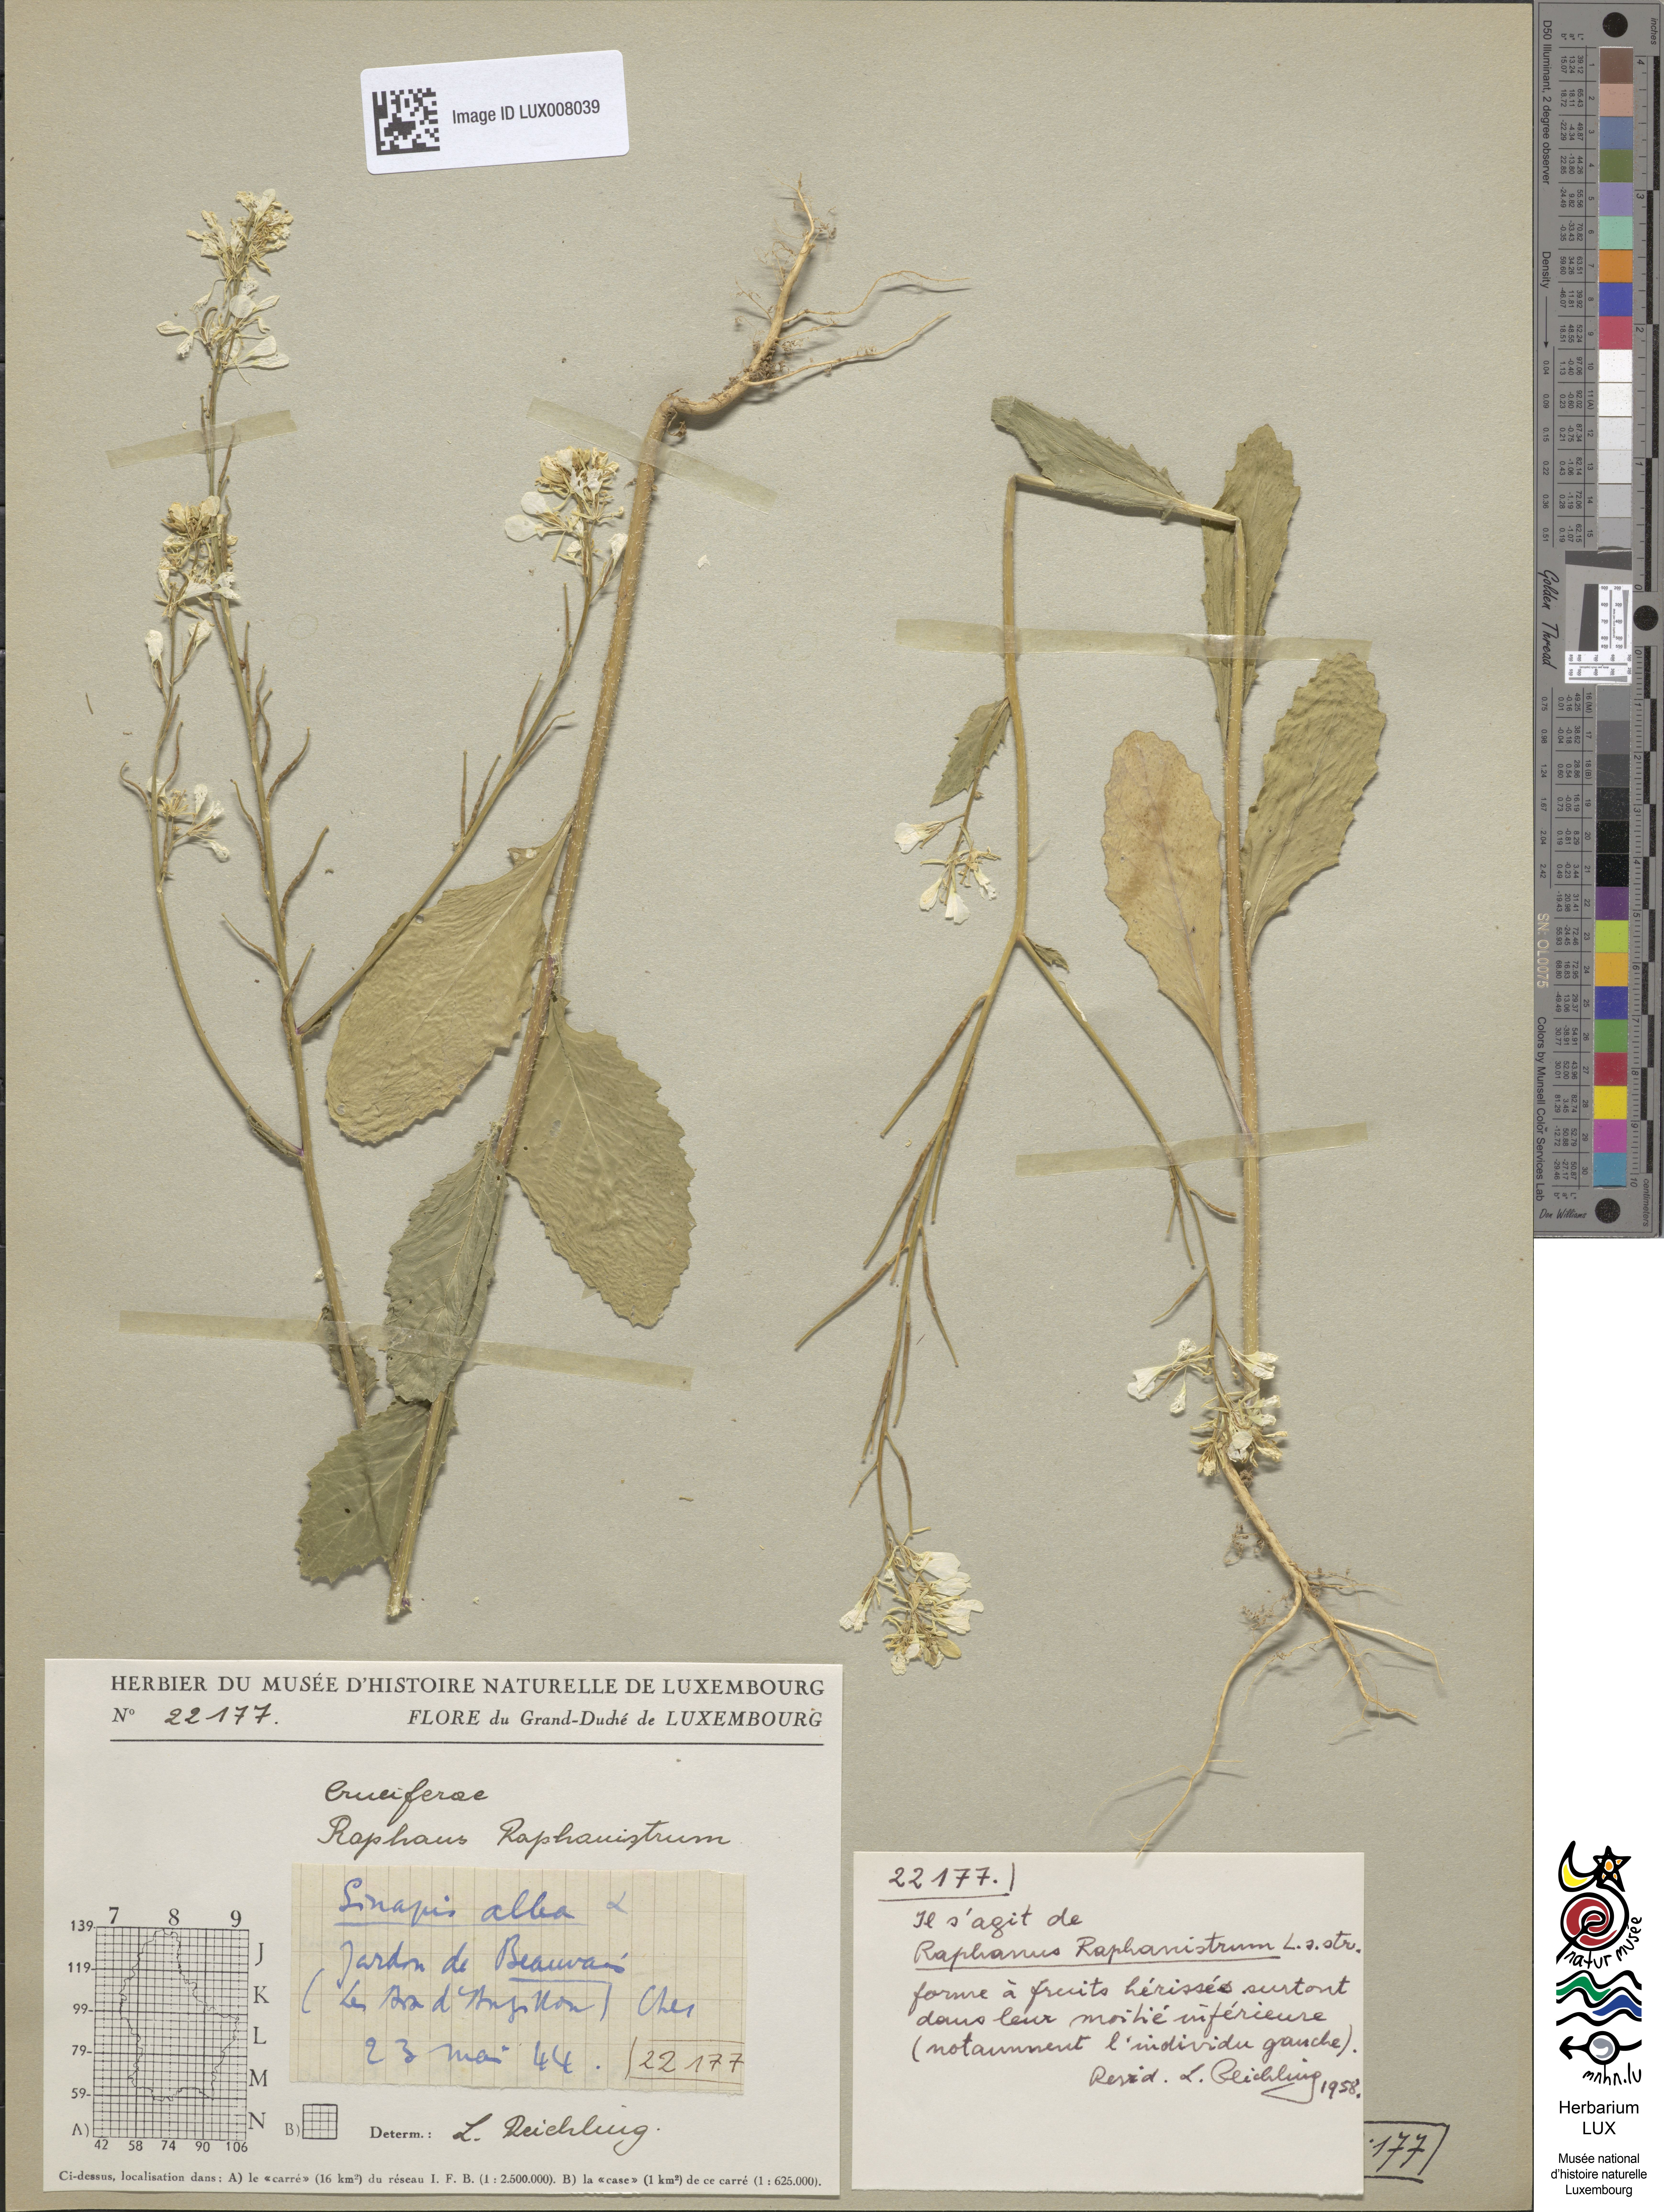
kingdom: Plantae
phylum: Tracheophyta
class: Magnoliopsida
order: Brassicales
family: Brassicaceae
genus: Raphanus
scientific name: Raphanus raphanistrum
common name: Wild radish
